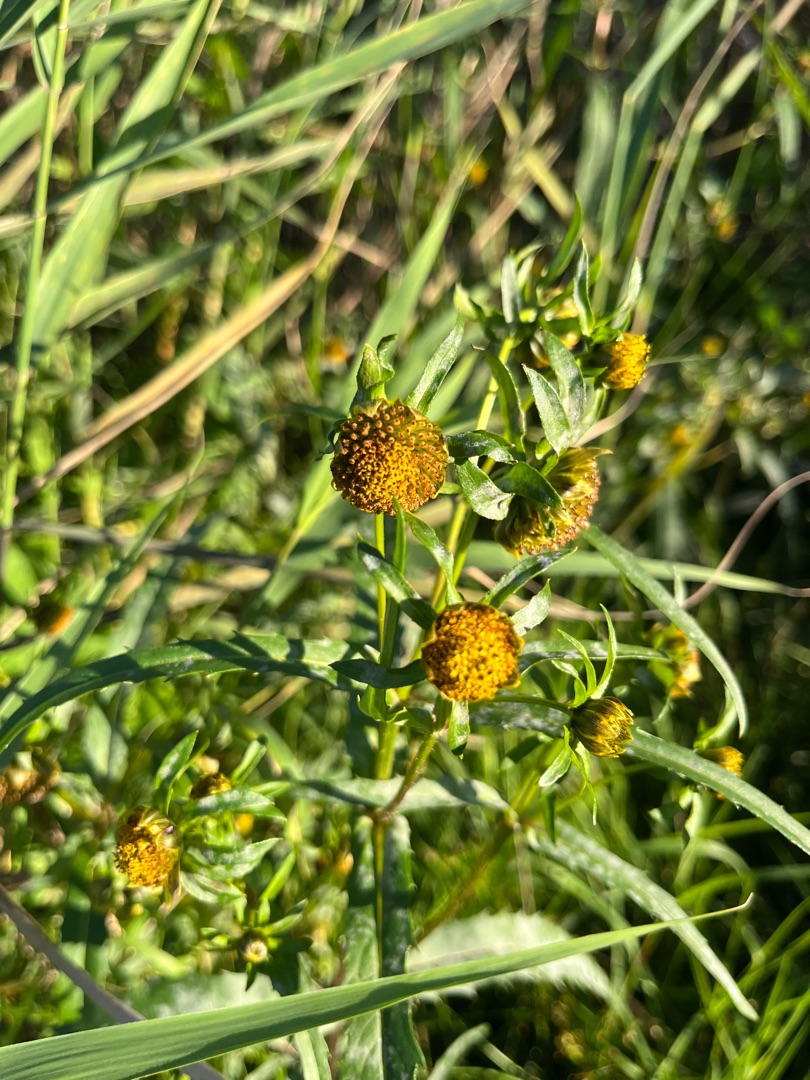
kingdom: Plantae
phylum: Tracheophyta
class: Magnoliopsida
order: Asterales
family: Asteraceae
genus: Bidens
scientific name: Bidens cernua
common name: Nikkende brøndsel
